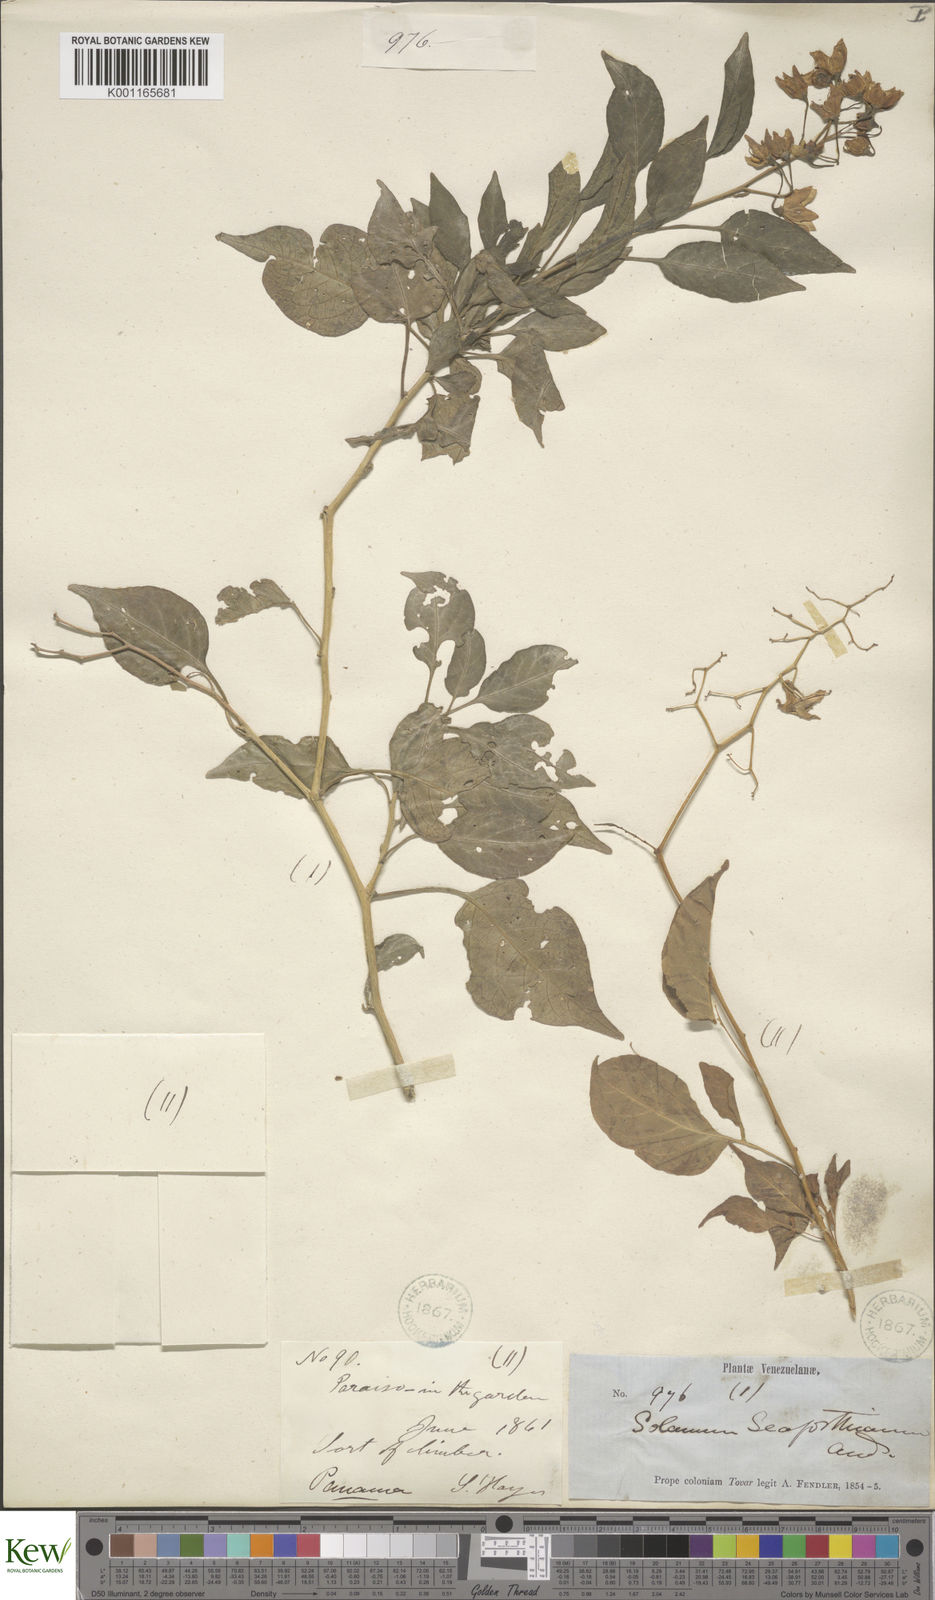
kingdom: Plantae
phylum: Tracheophyta
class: Magnoliopsida
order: Solanales
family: Solanaceae
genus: Solanum
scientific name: Solanum seaforthianum
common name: Brazilian nightshade
